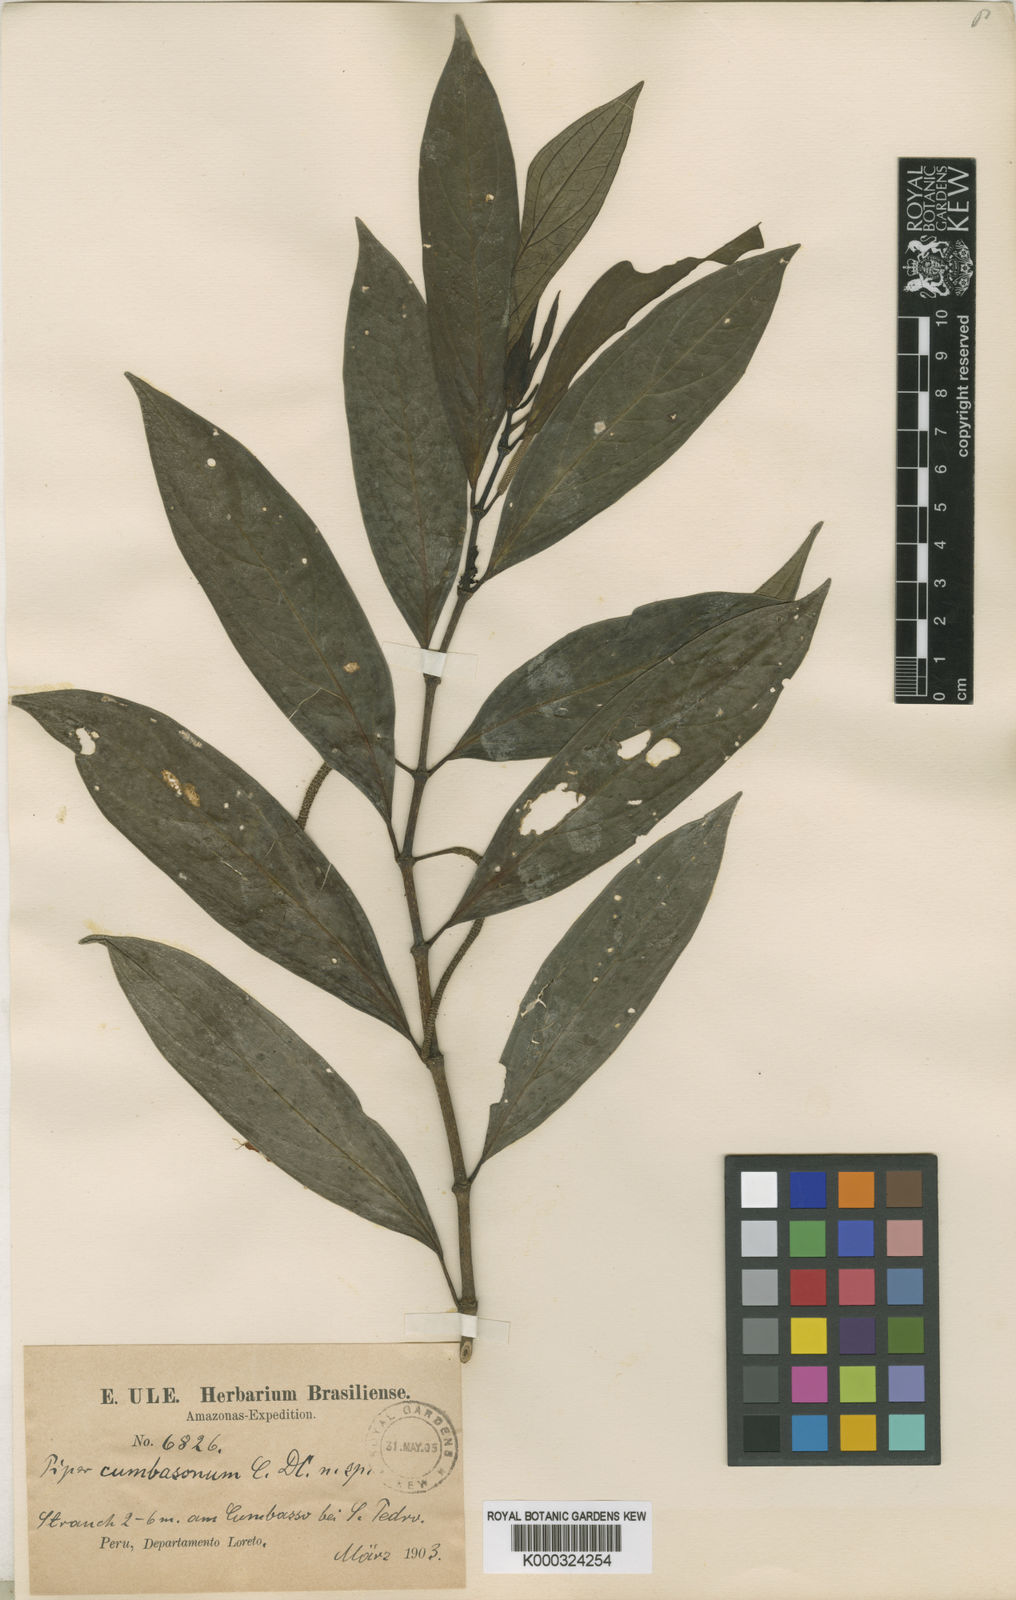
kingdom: Plantae
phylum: Tracheophyta
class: Magnoliopsida
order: Piperales
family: Piperaceae
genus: Piper
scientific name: Piper cumbasonum
